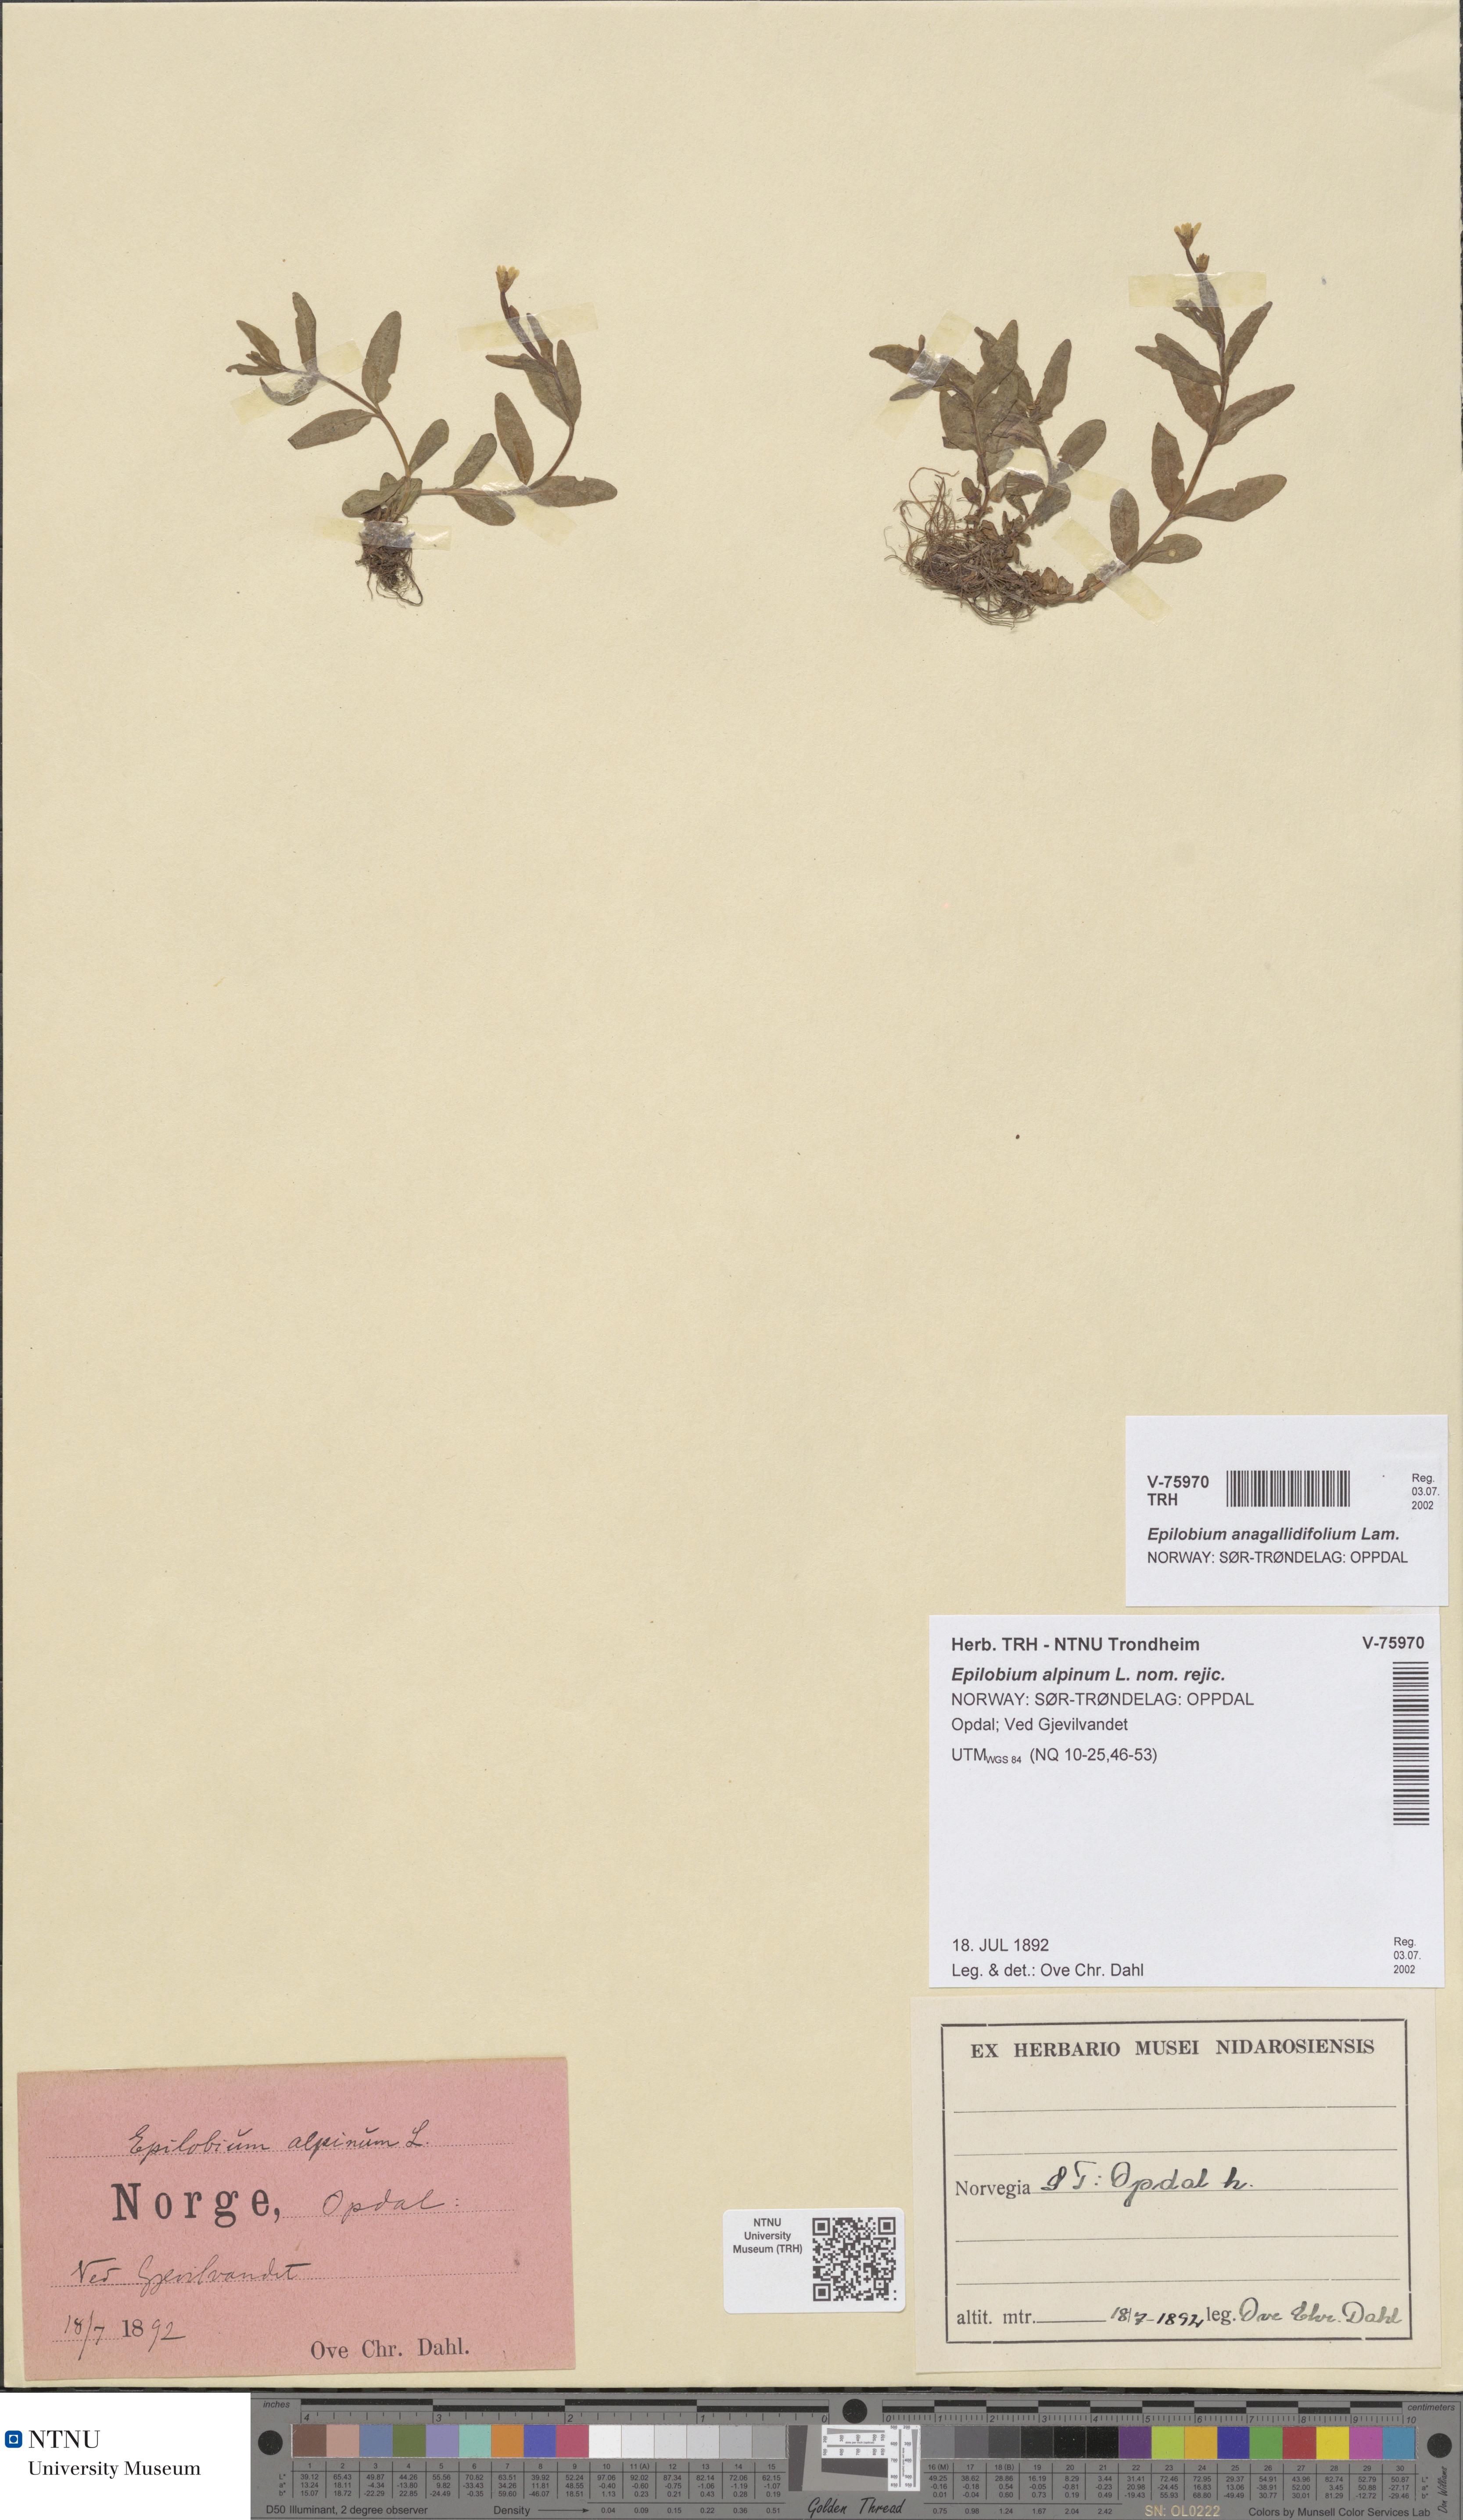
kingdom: Plantae
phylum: Tracheophyta
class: Magnoliopsida
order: Myrtales
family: Onagraceae
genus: Epilobium
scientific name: Epilobium anagallidifolium
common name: Alpine willowherb
